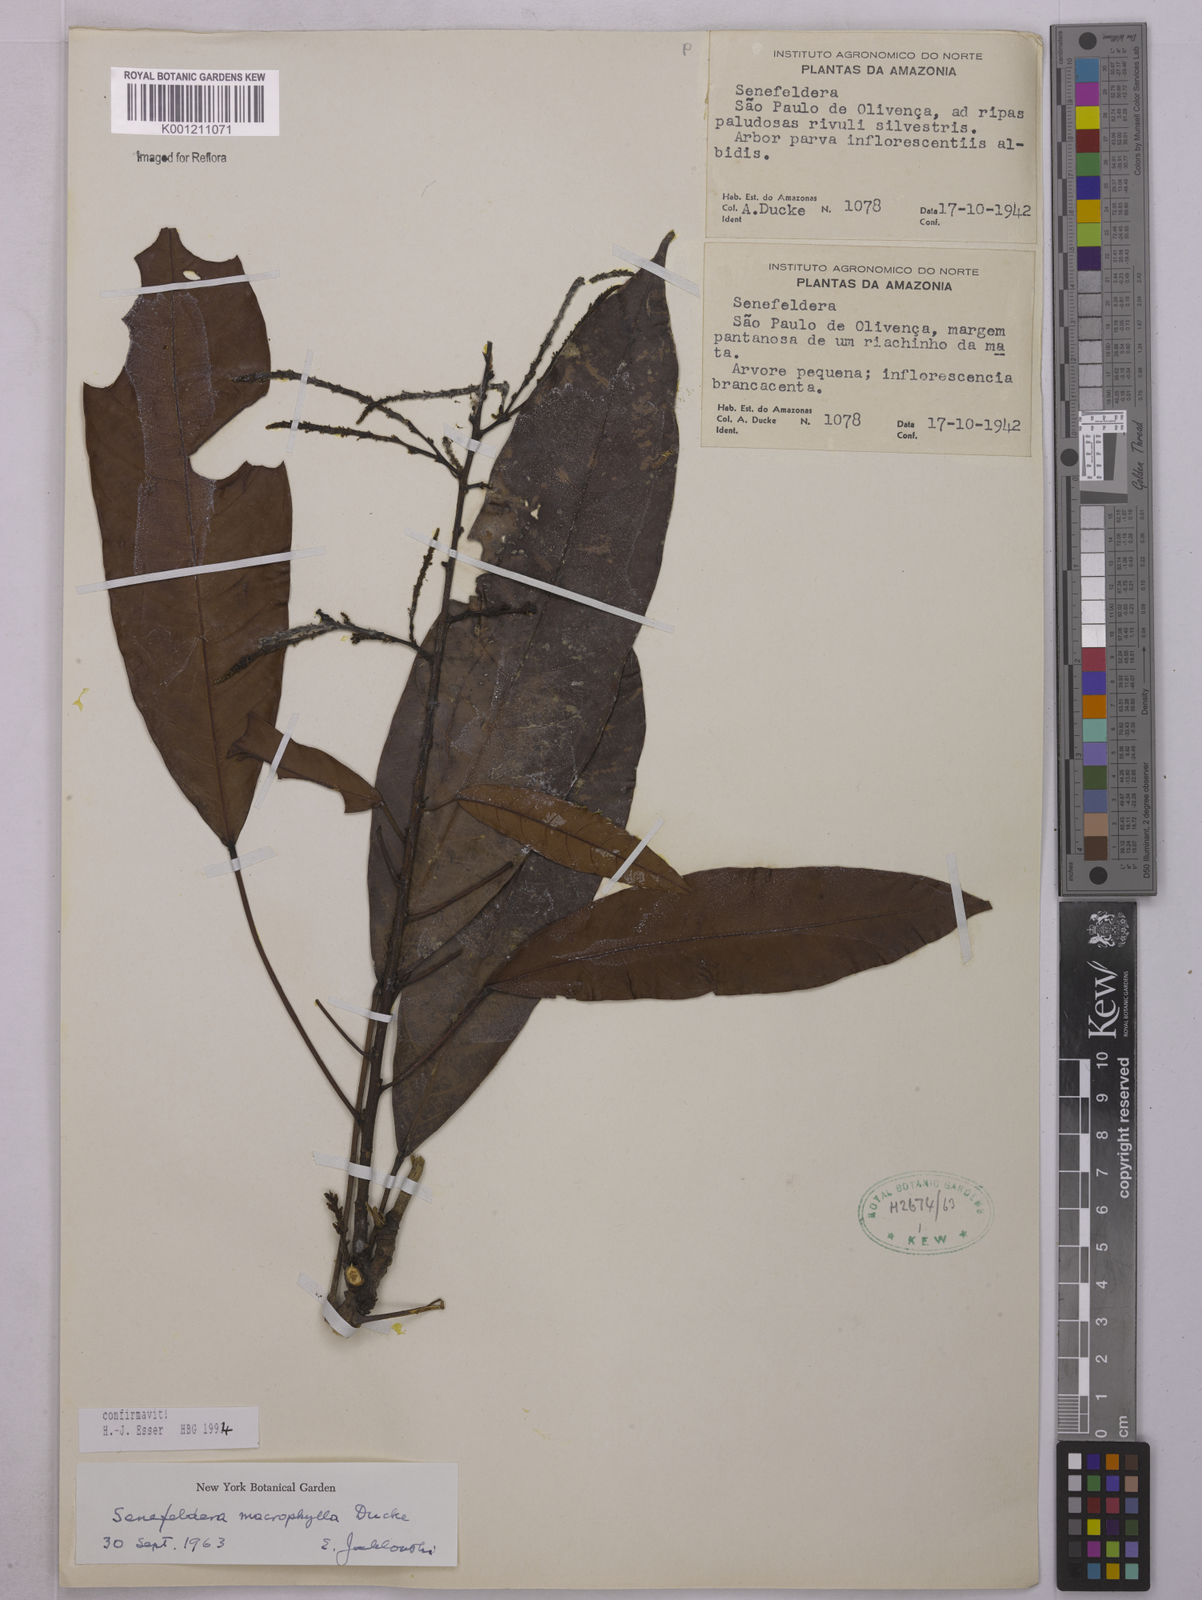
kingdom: Plantae
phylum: Tracheophyta
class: Magnoliopsida
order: Malpighiales
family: Euphorbiaceae
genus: Rhodothyrsus
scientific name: Rhodothyrsus macrophyllus
